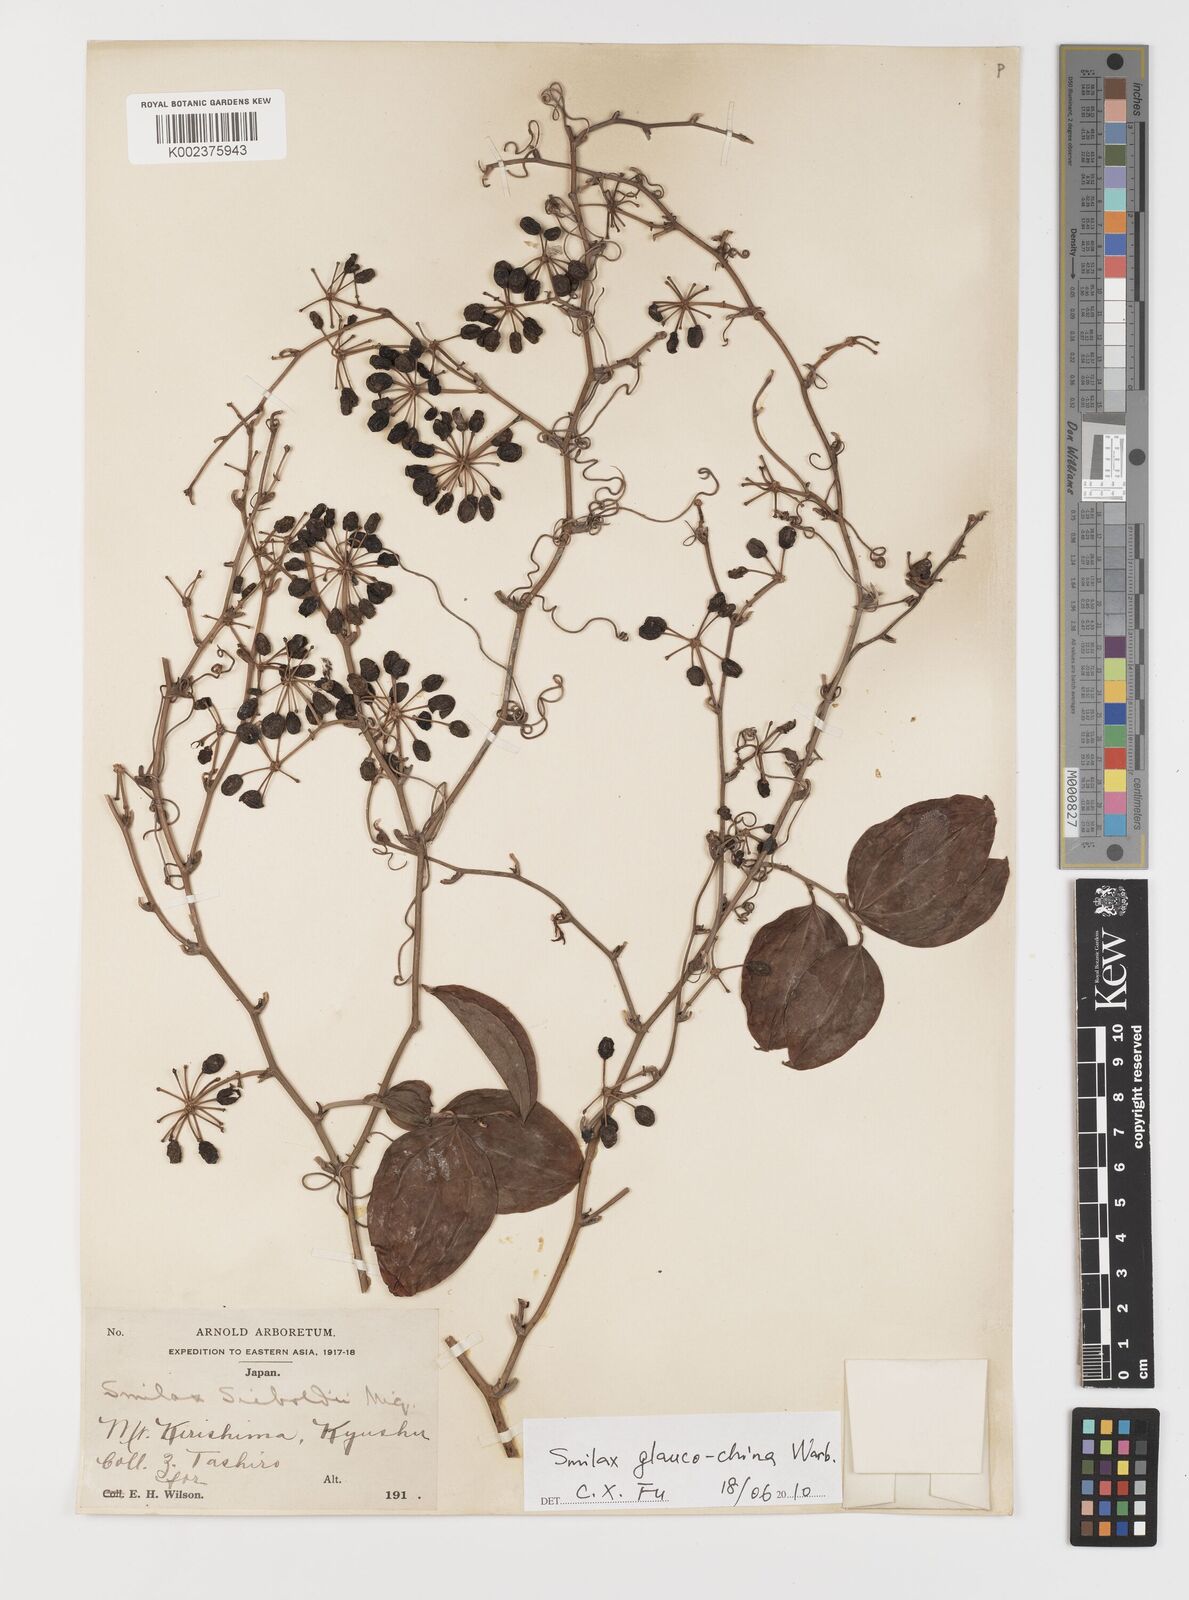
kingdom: Plantae
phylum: Tracheophyta
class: Liliopsida
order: Liliales
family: Smilacaceae
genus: Smilax
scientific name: Smilax glaucochina
